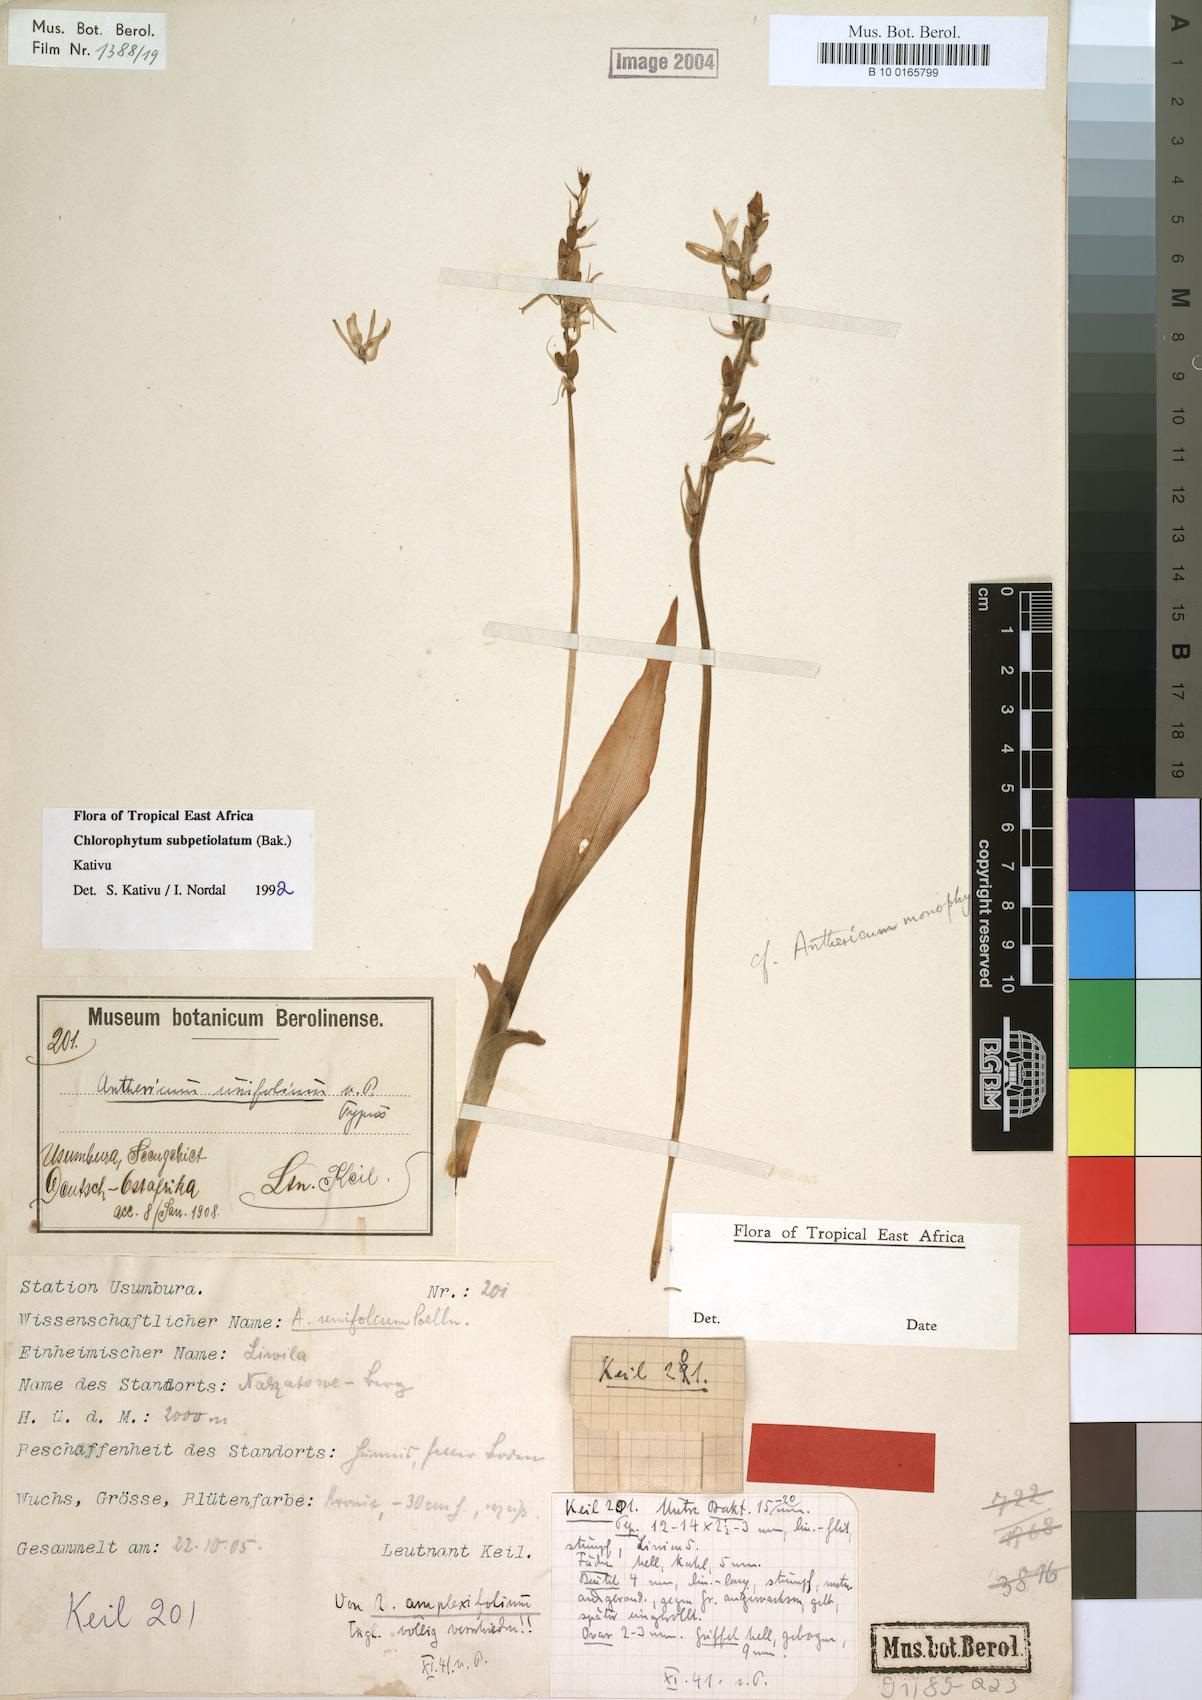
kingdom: Plantae
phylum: Tracheophyta
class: Liliopsida
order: Asparagales
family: Asparagaceae
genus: Chlorophytum
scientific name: Chlorophytum subpetiolatum
